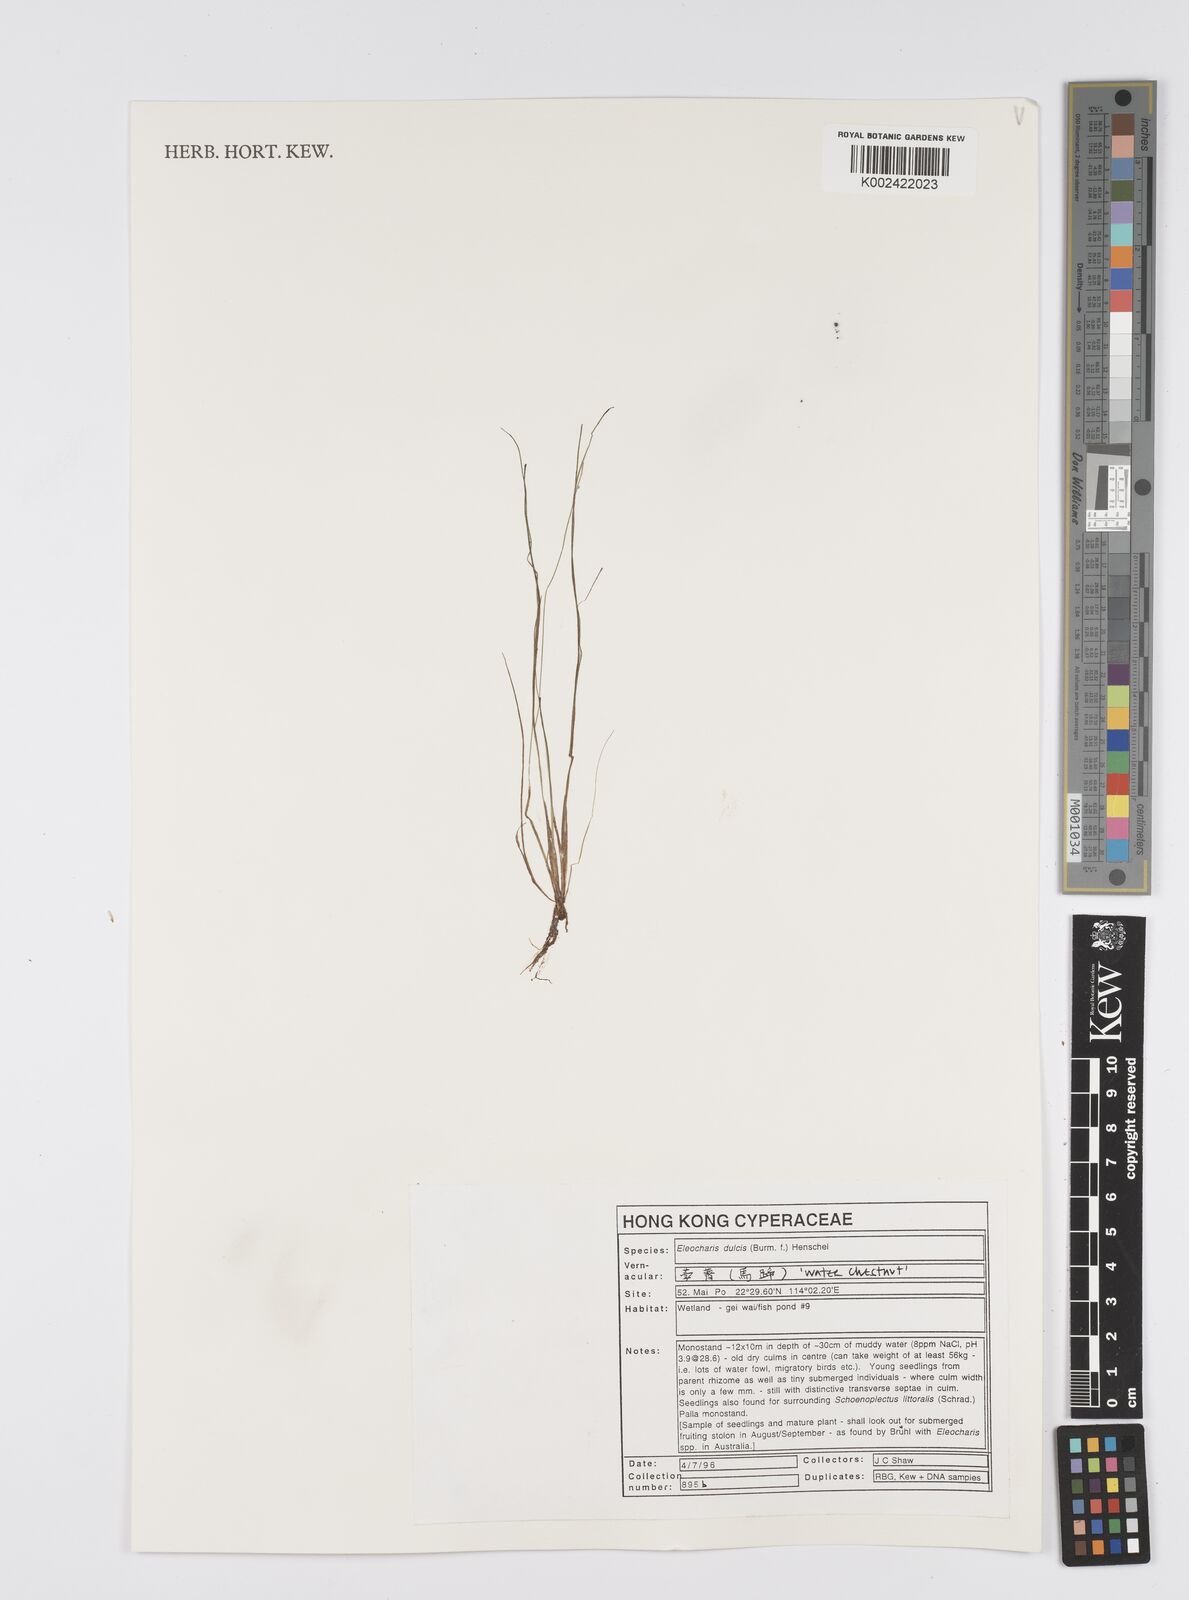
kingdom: Plantae
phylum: Tracheophyta
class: Liliopsida
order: Poales
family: Cyperaceae
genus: Eleocharis
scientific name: Eleocharis dulcis
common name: Chinese water chestnut
